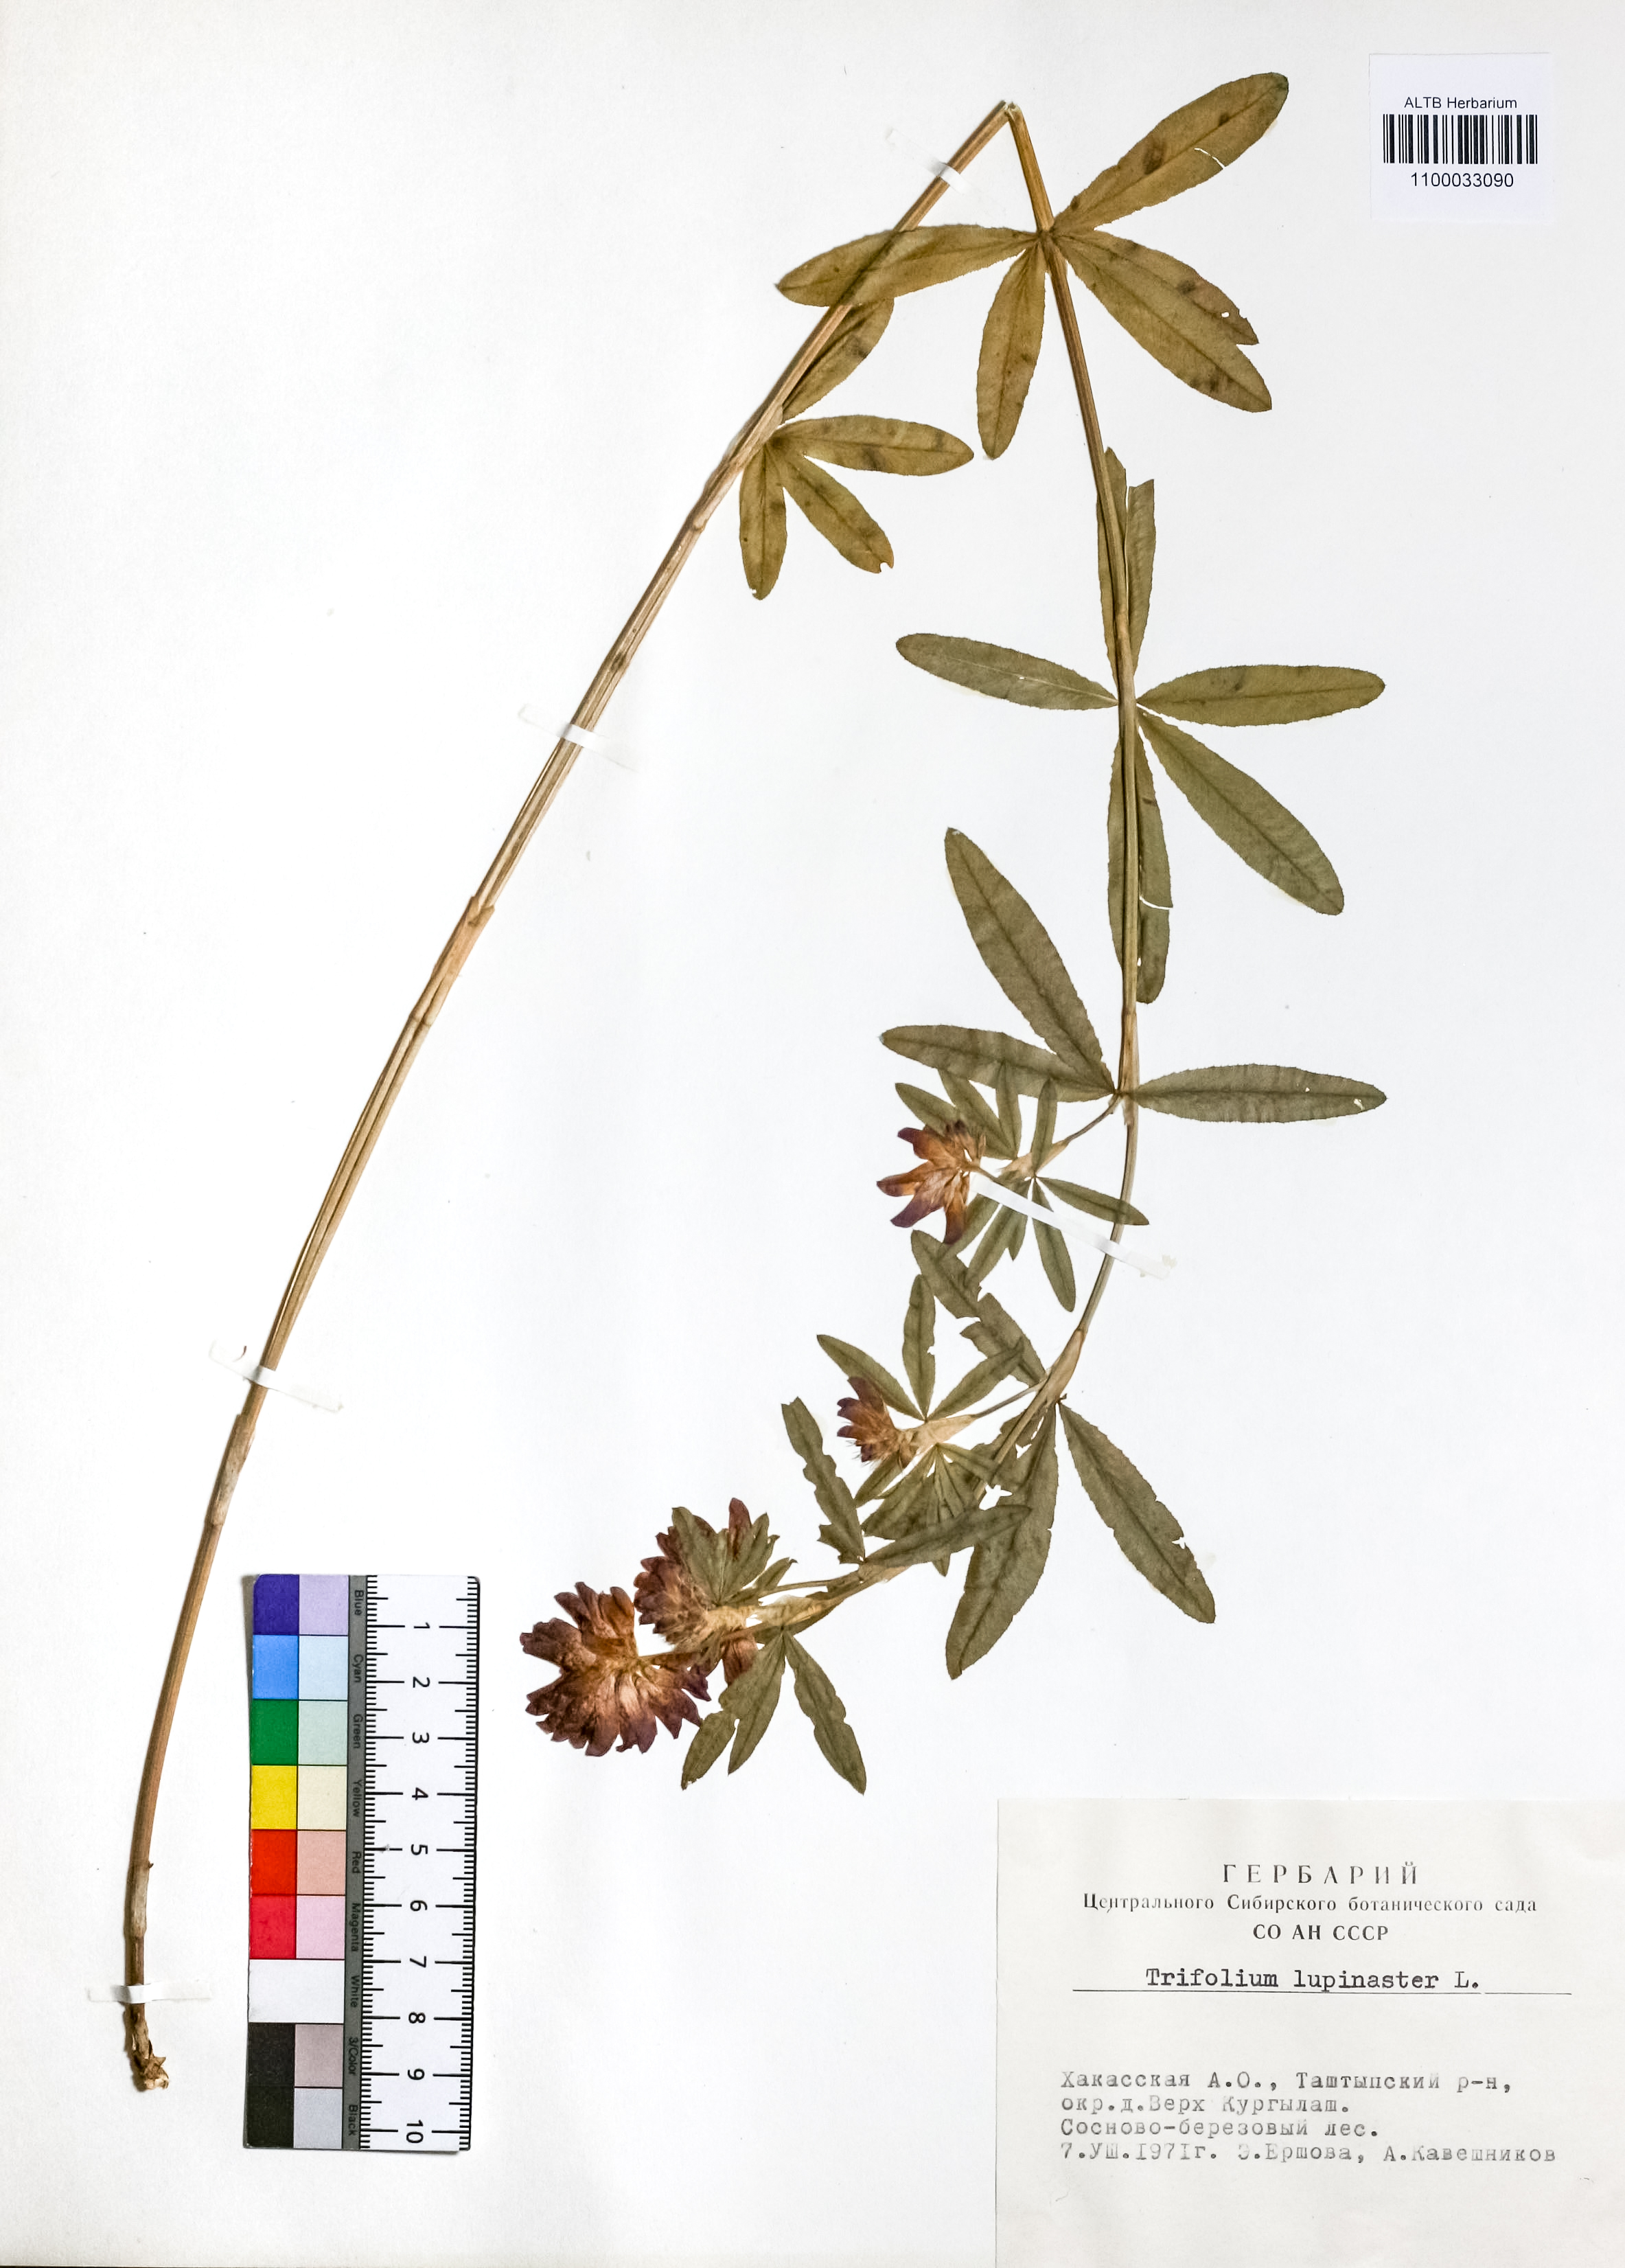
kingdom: Plantae
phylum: Tracheophyta
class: Magnoliopsida
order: Fabales
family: Fabaceae
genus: Trifolium
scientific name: Trifolium lupinaster
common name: Lupine clover
